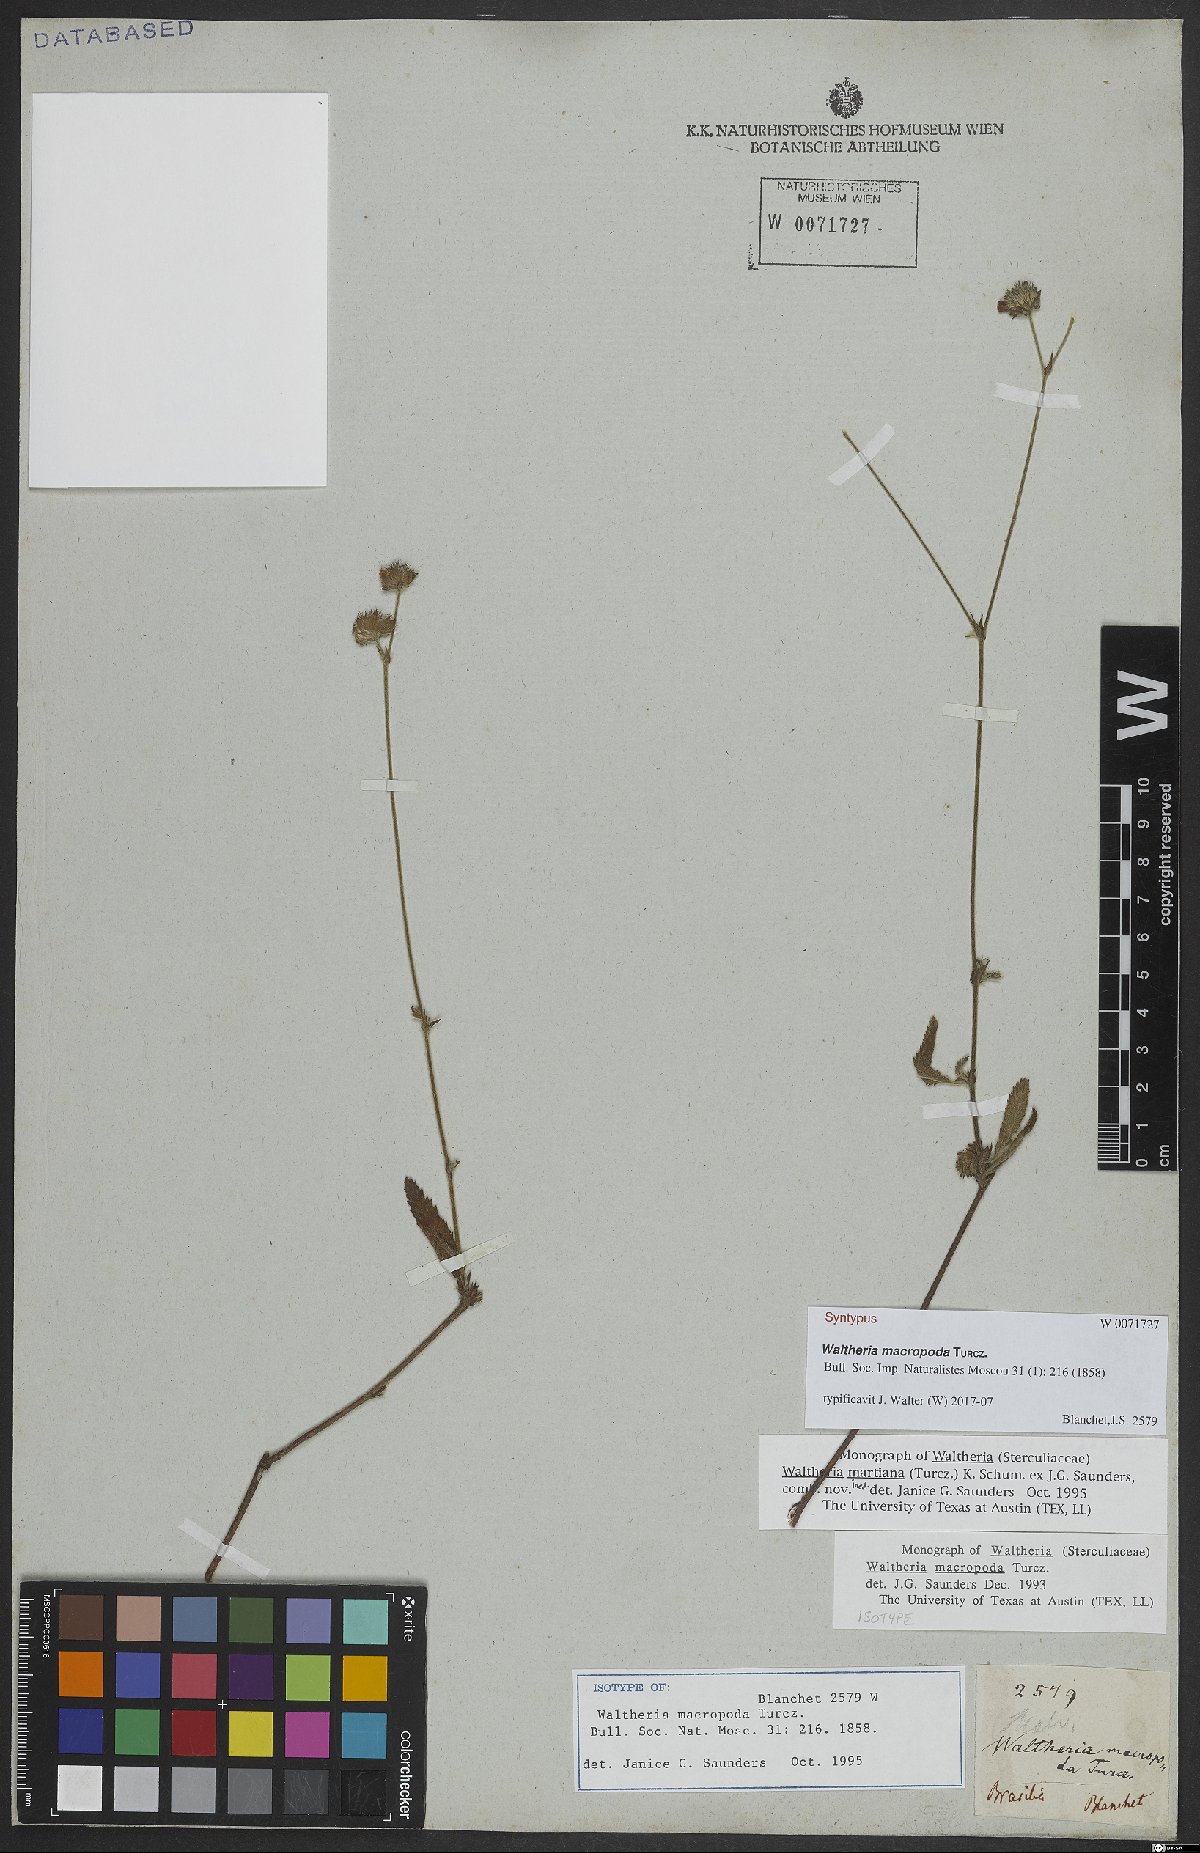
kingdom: Plantae
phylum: Tracheophyta
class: Magnoliopsida
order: Malvales
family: Malvaceae
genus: Waltheria
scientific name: Waltheria bracteosa
